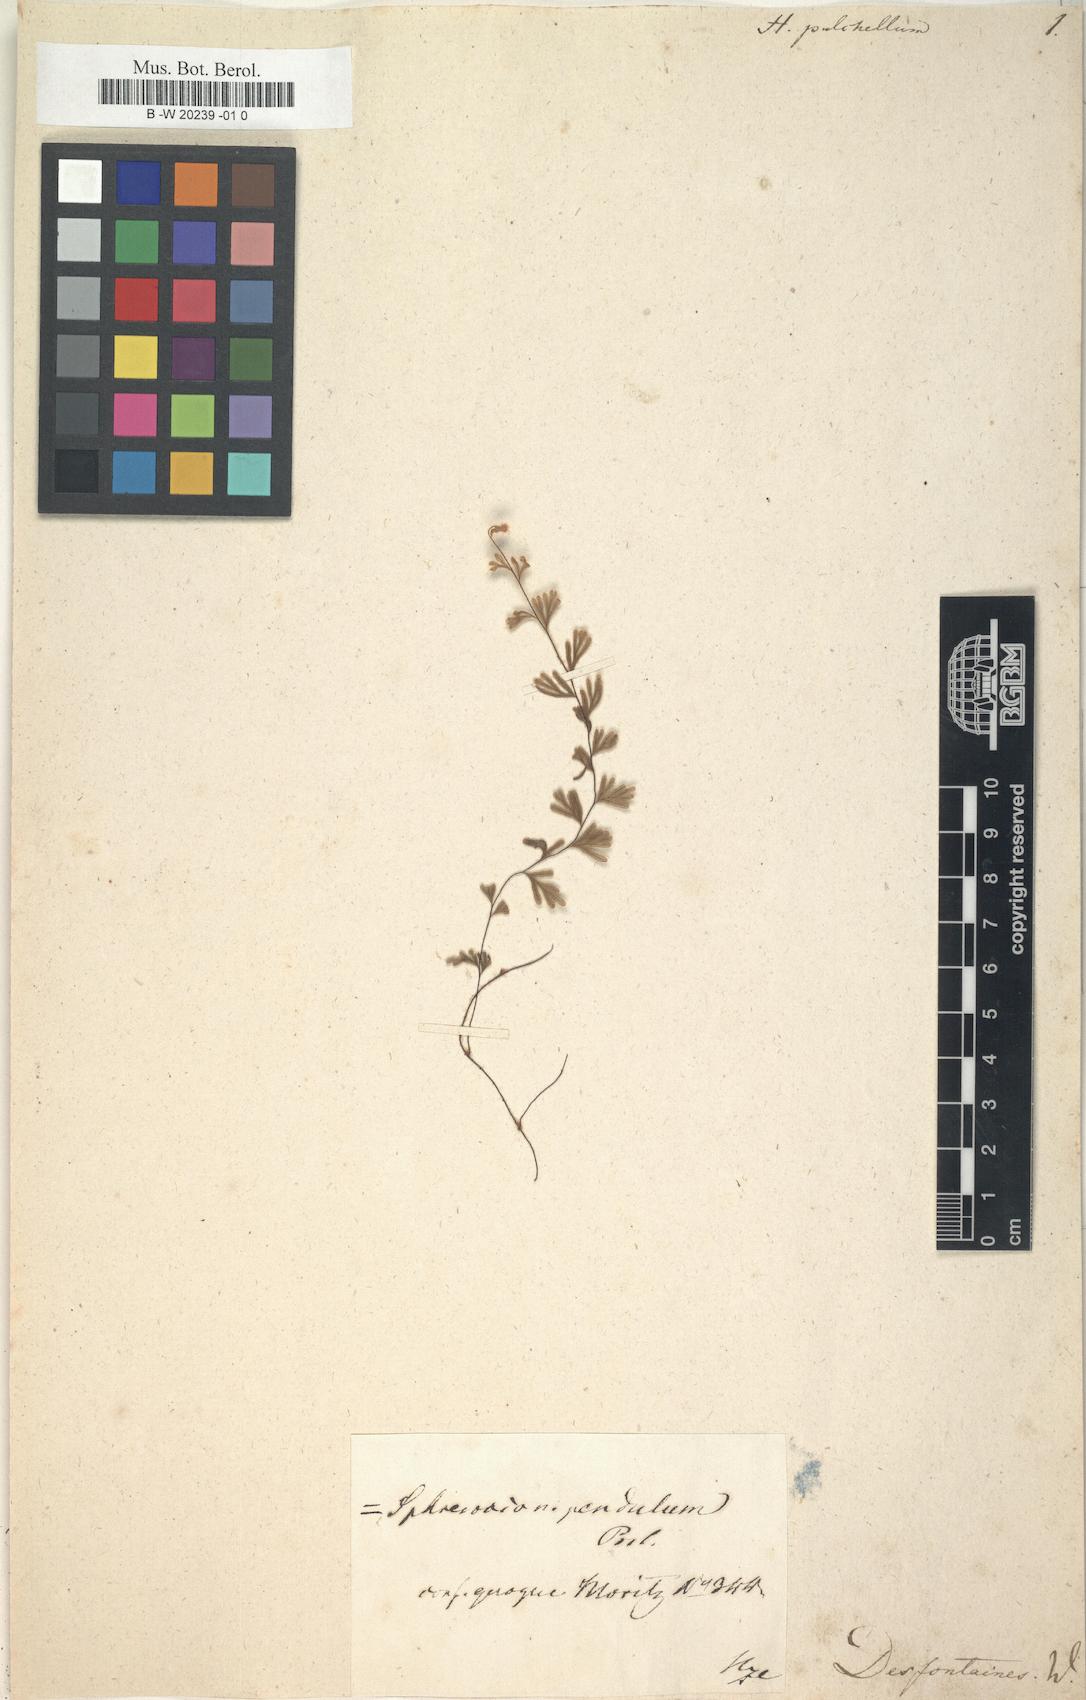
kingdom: Plantae
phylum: Tracheophyta
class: Polypodiopsida
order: Hymenophyllales
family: Hymenophyllaceae
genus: Hymenophyllum
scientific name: Hymenophyllum pulchellum
